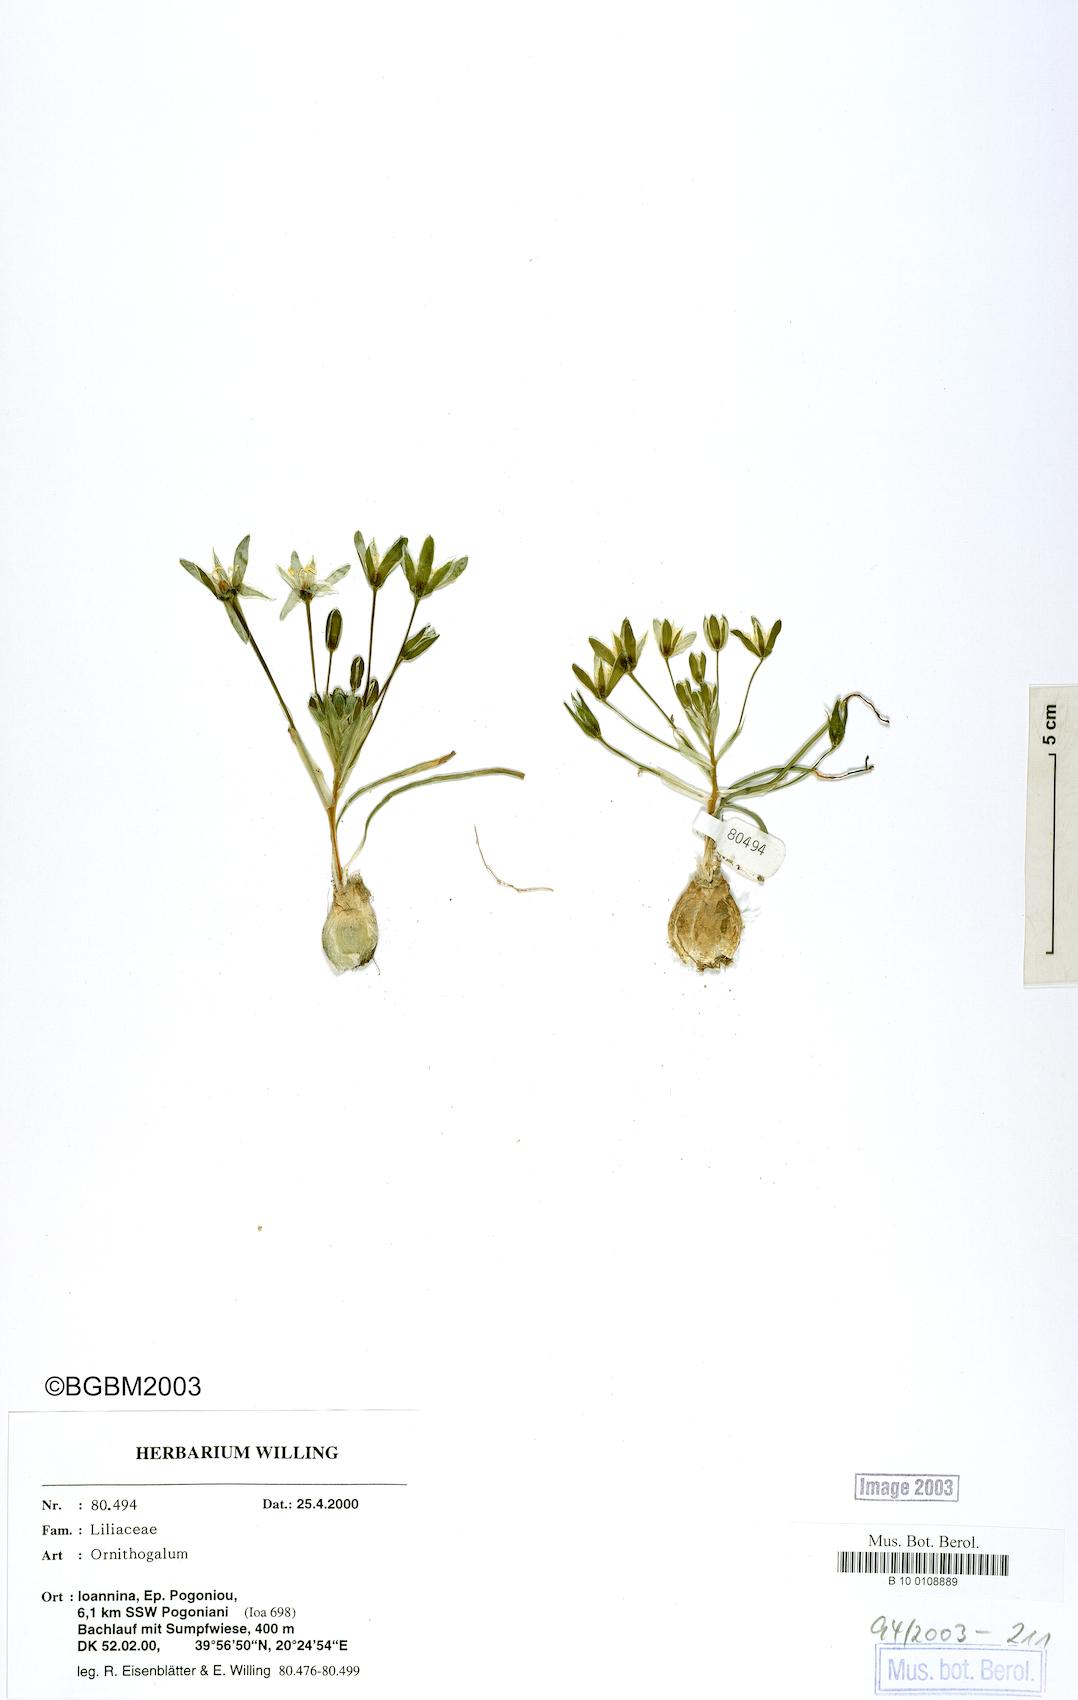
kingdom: Plantae
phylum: Tracheophyta
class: Liliopsida
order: Asparagales
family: Asparagaceae
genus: Ornithogalum
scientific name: Ornithogalum
